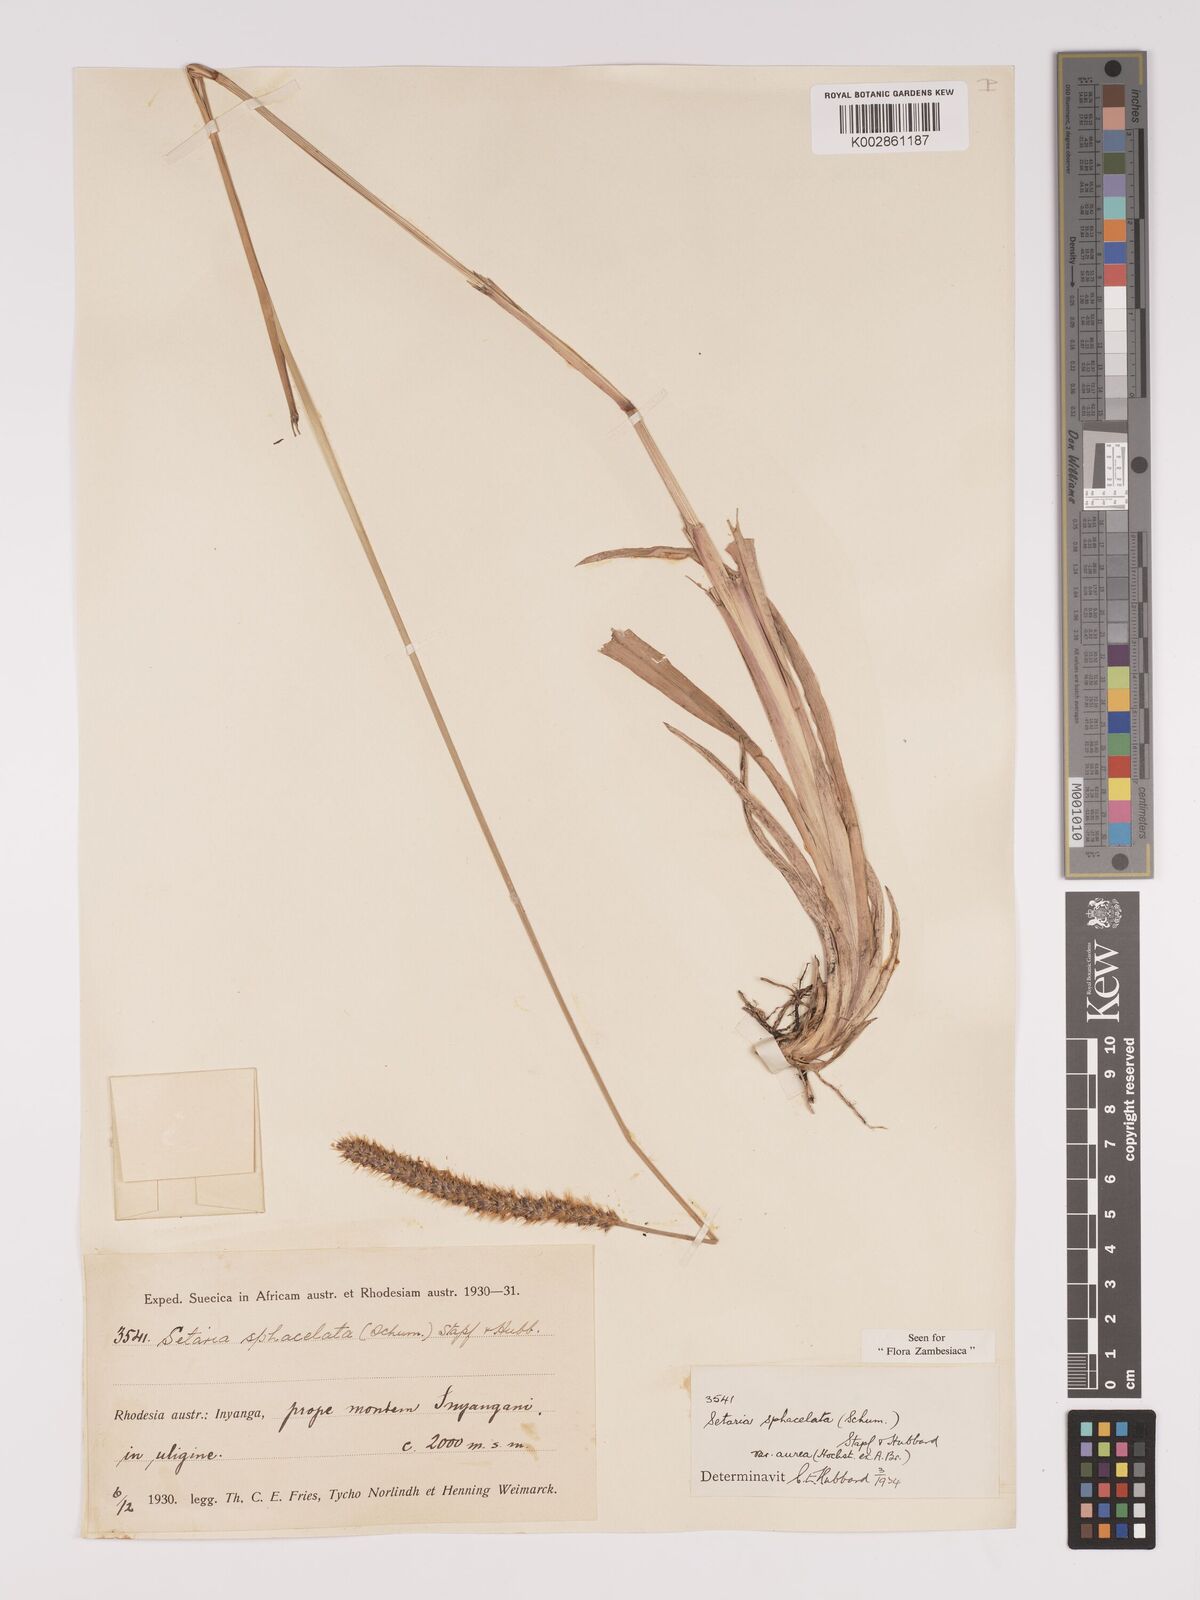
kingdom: Plantae
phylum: Tracheophyta
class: Liliopsida
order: Poales
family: Poaceae
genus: Setaria
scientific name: Setaria sphacelata
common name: African bristlegrass
